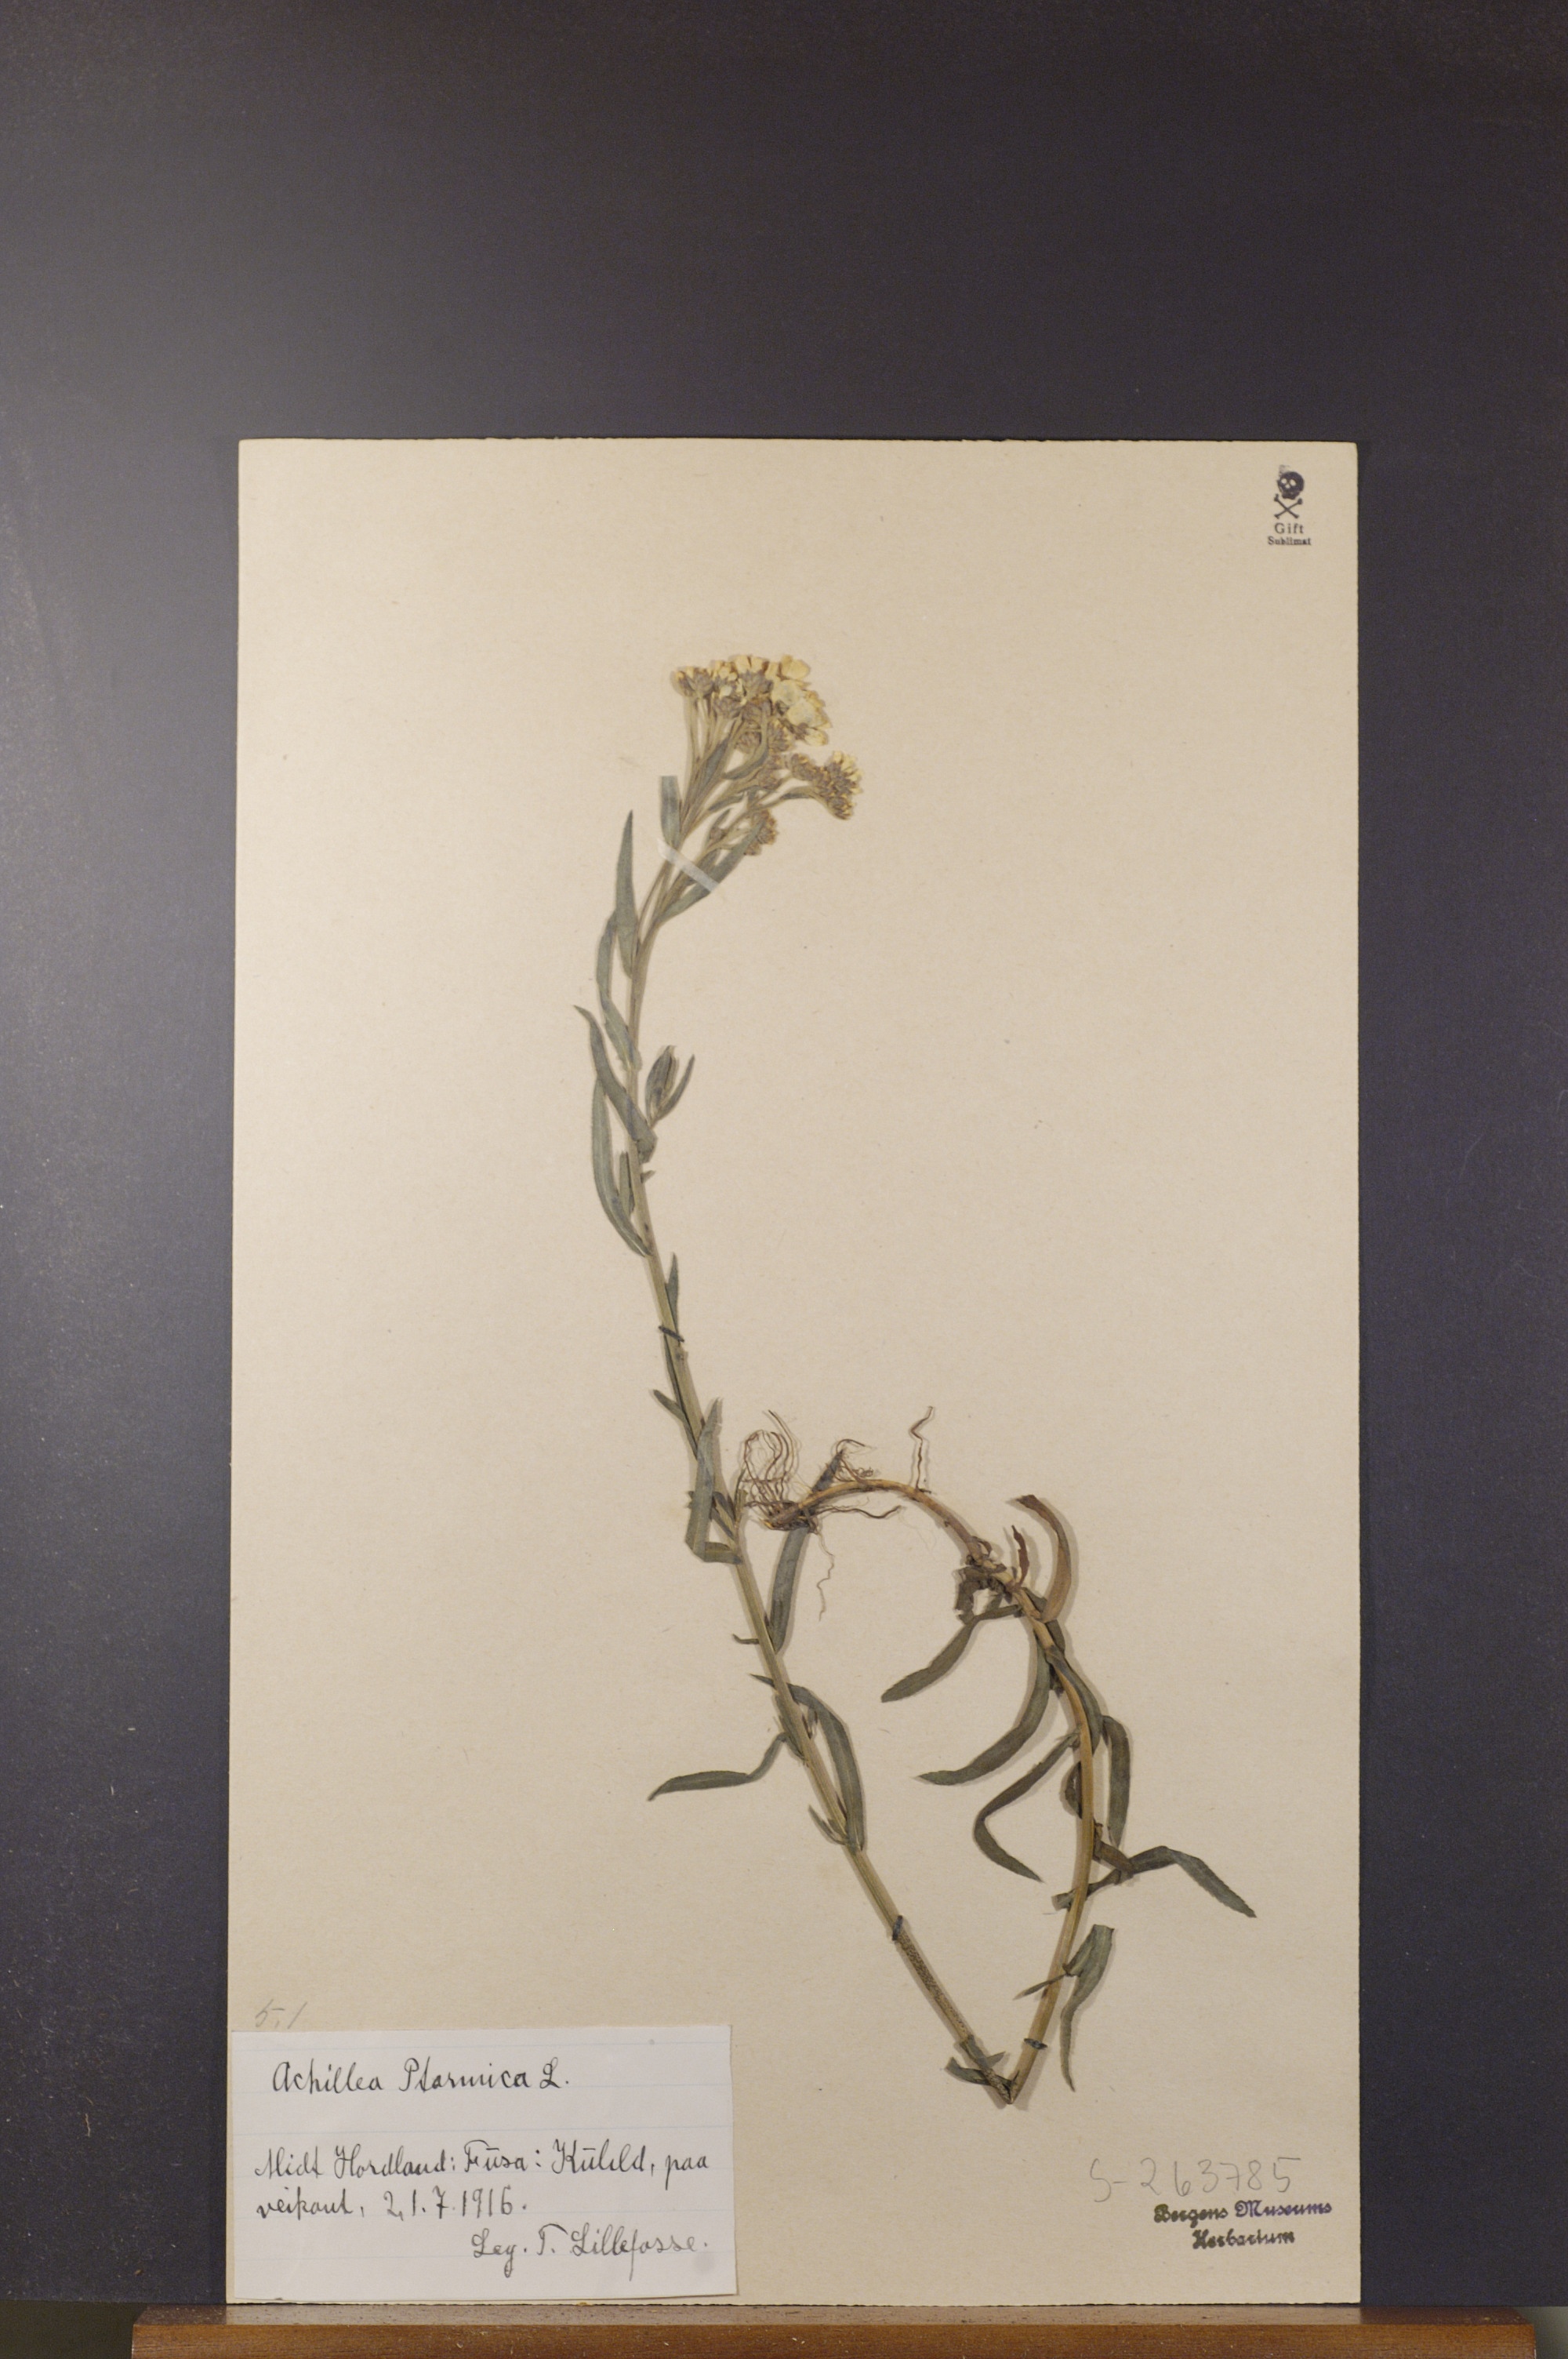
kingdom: Plantae
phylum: Tracheophyta
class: Magnoliopsida
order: Asterales
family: Asteraceae
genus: Achillea
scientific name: Achillea ptarmica
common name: Sneezeweed
